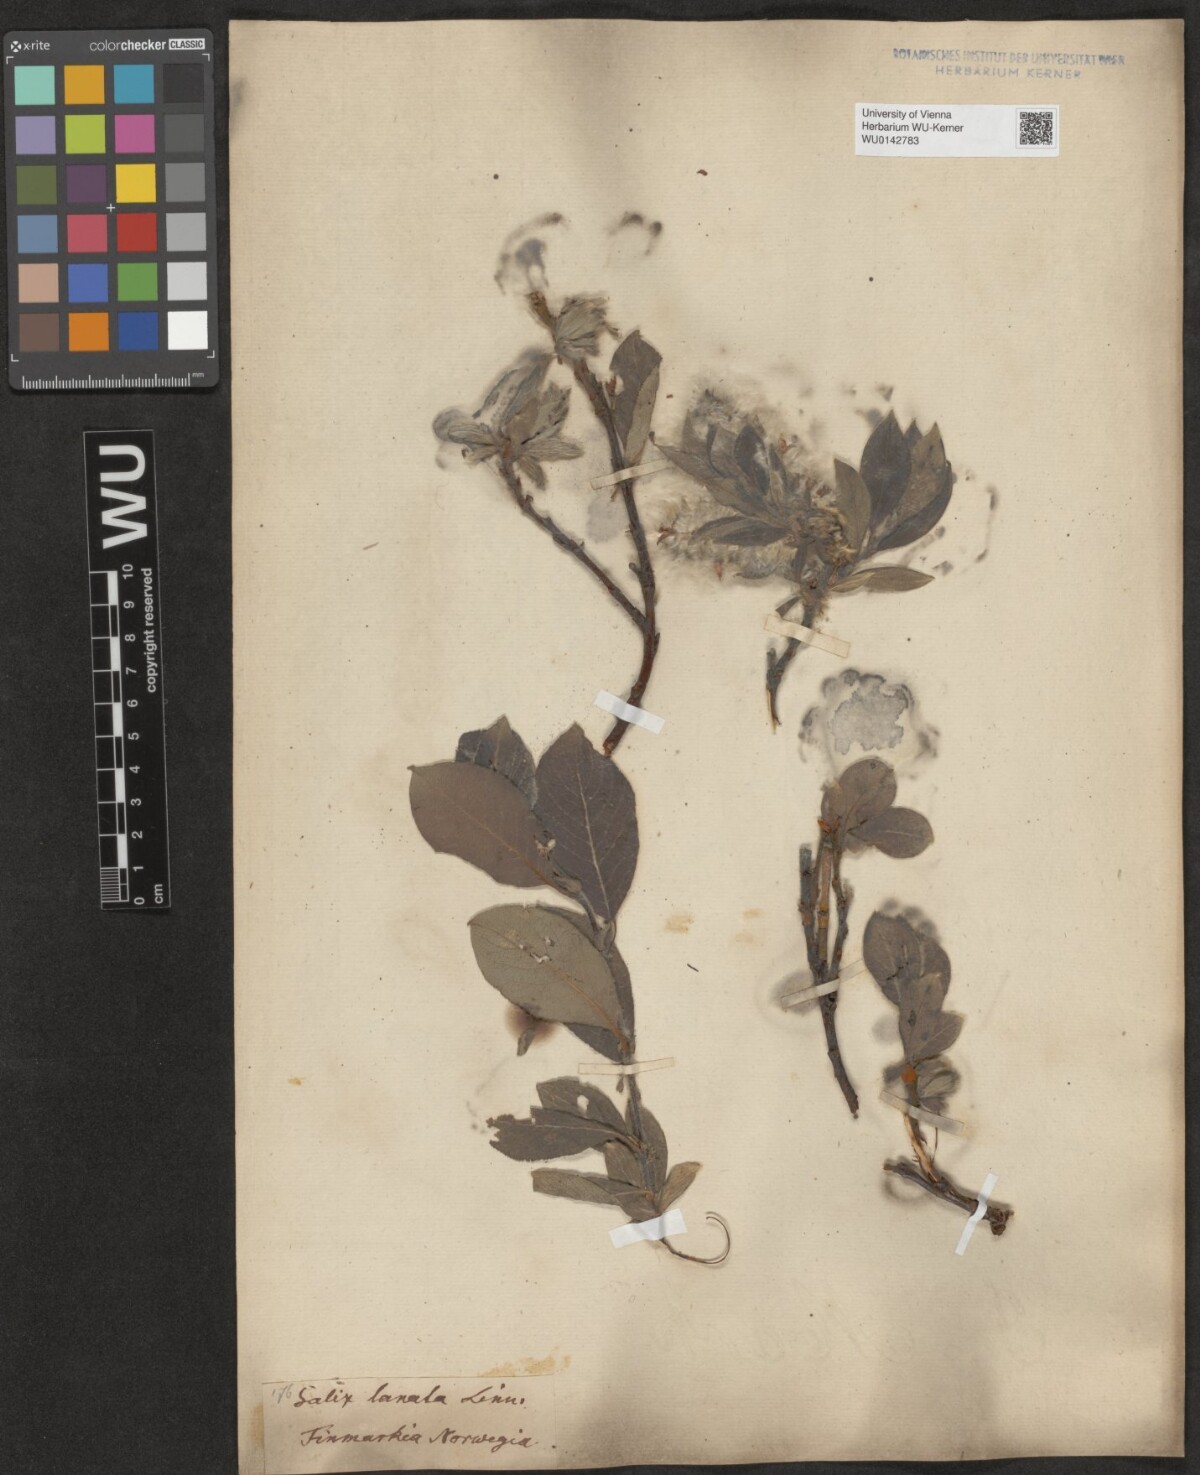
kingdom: Plantae
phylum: Tracheophyta
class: Magnoliopsida
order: Malpighiales
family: Salicaceae
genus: Salix
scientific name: Salix lanata
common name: Woolly willow
